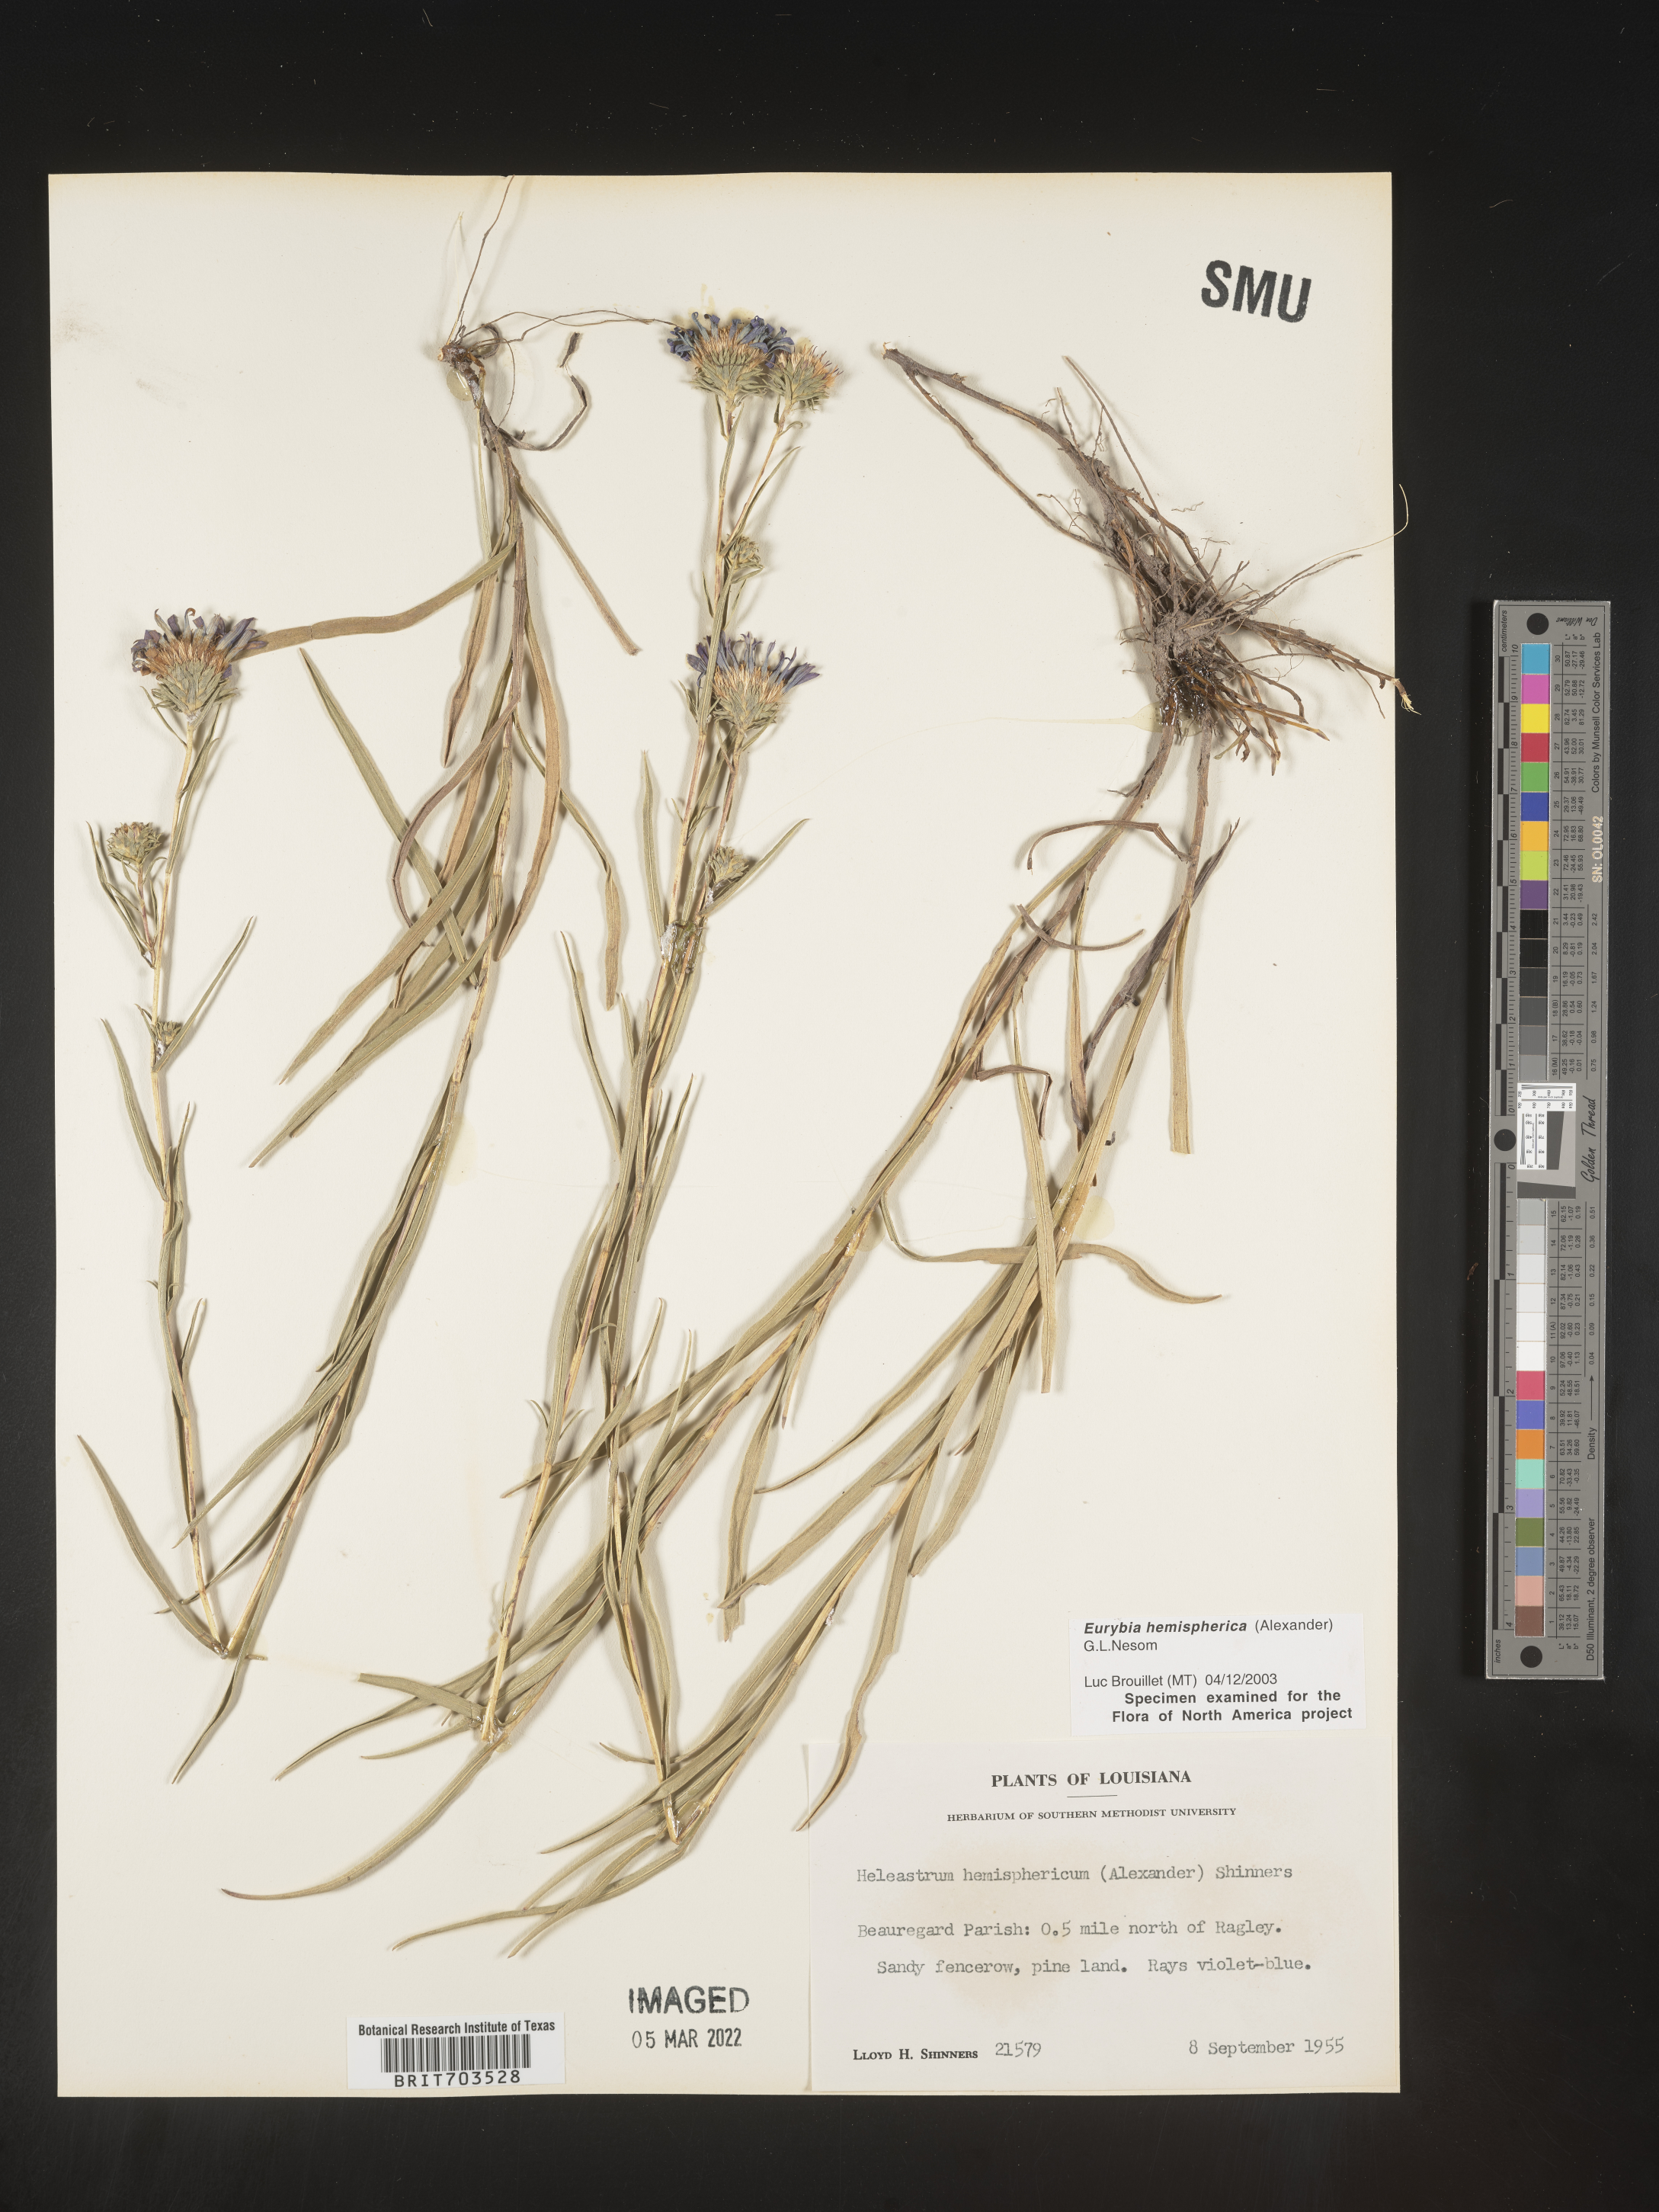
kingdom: Plantae
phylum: Tracheophyta
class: Magnoliopsida
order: Asterales
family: Asteraceae
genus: Eurybia
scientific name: Eurybia hemispherica
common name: Showy aster
